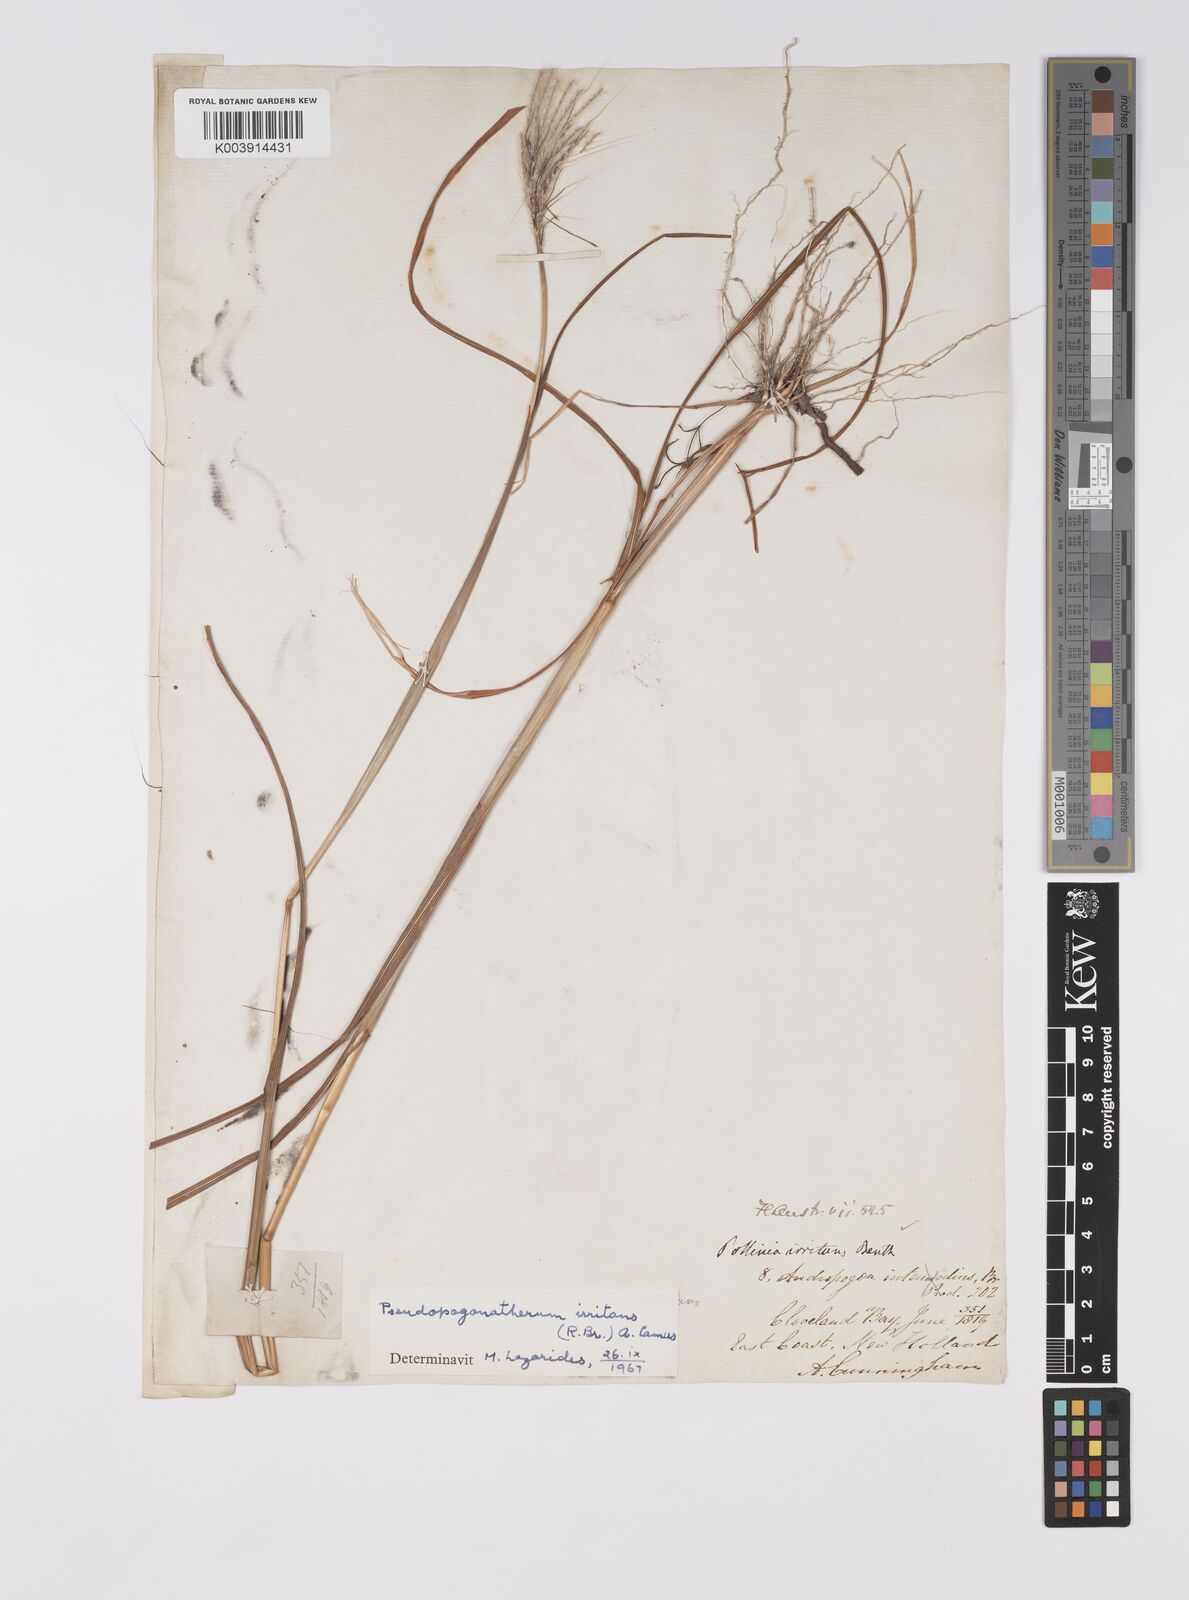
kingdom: Plantae
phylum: Tracheophyta
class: Liliopsida
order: Poales
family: Poaceae
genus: Pseudopogonatherum
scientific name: Pseudopogonatherum irritans
